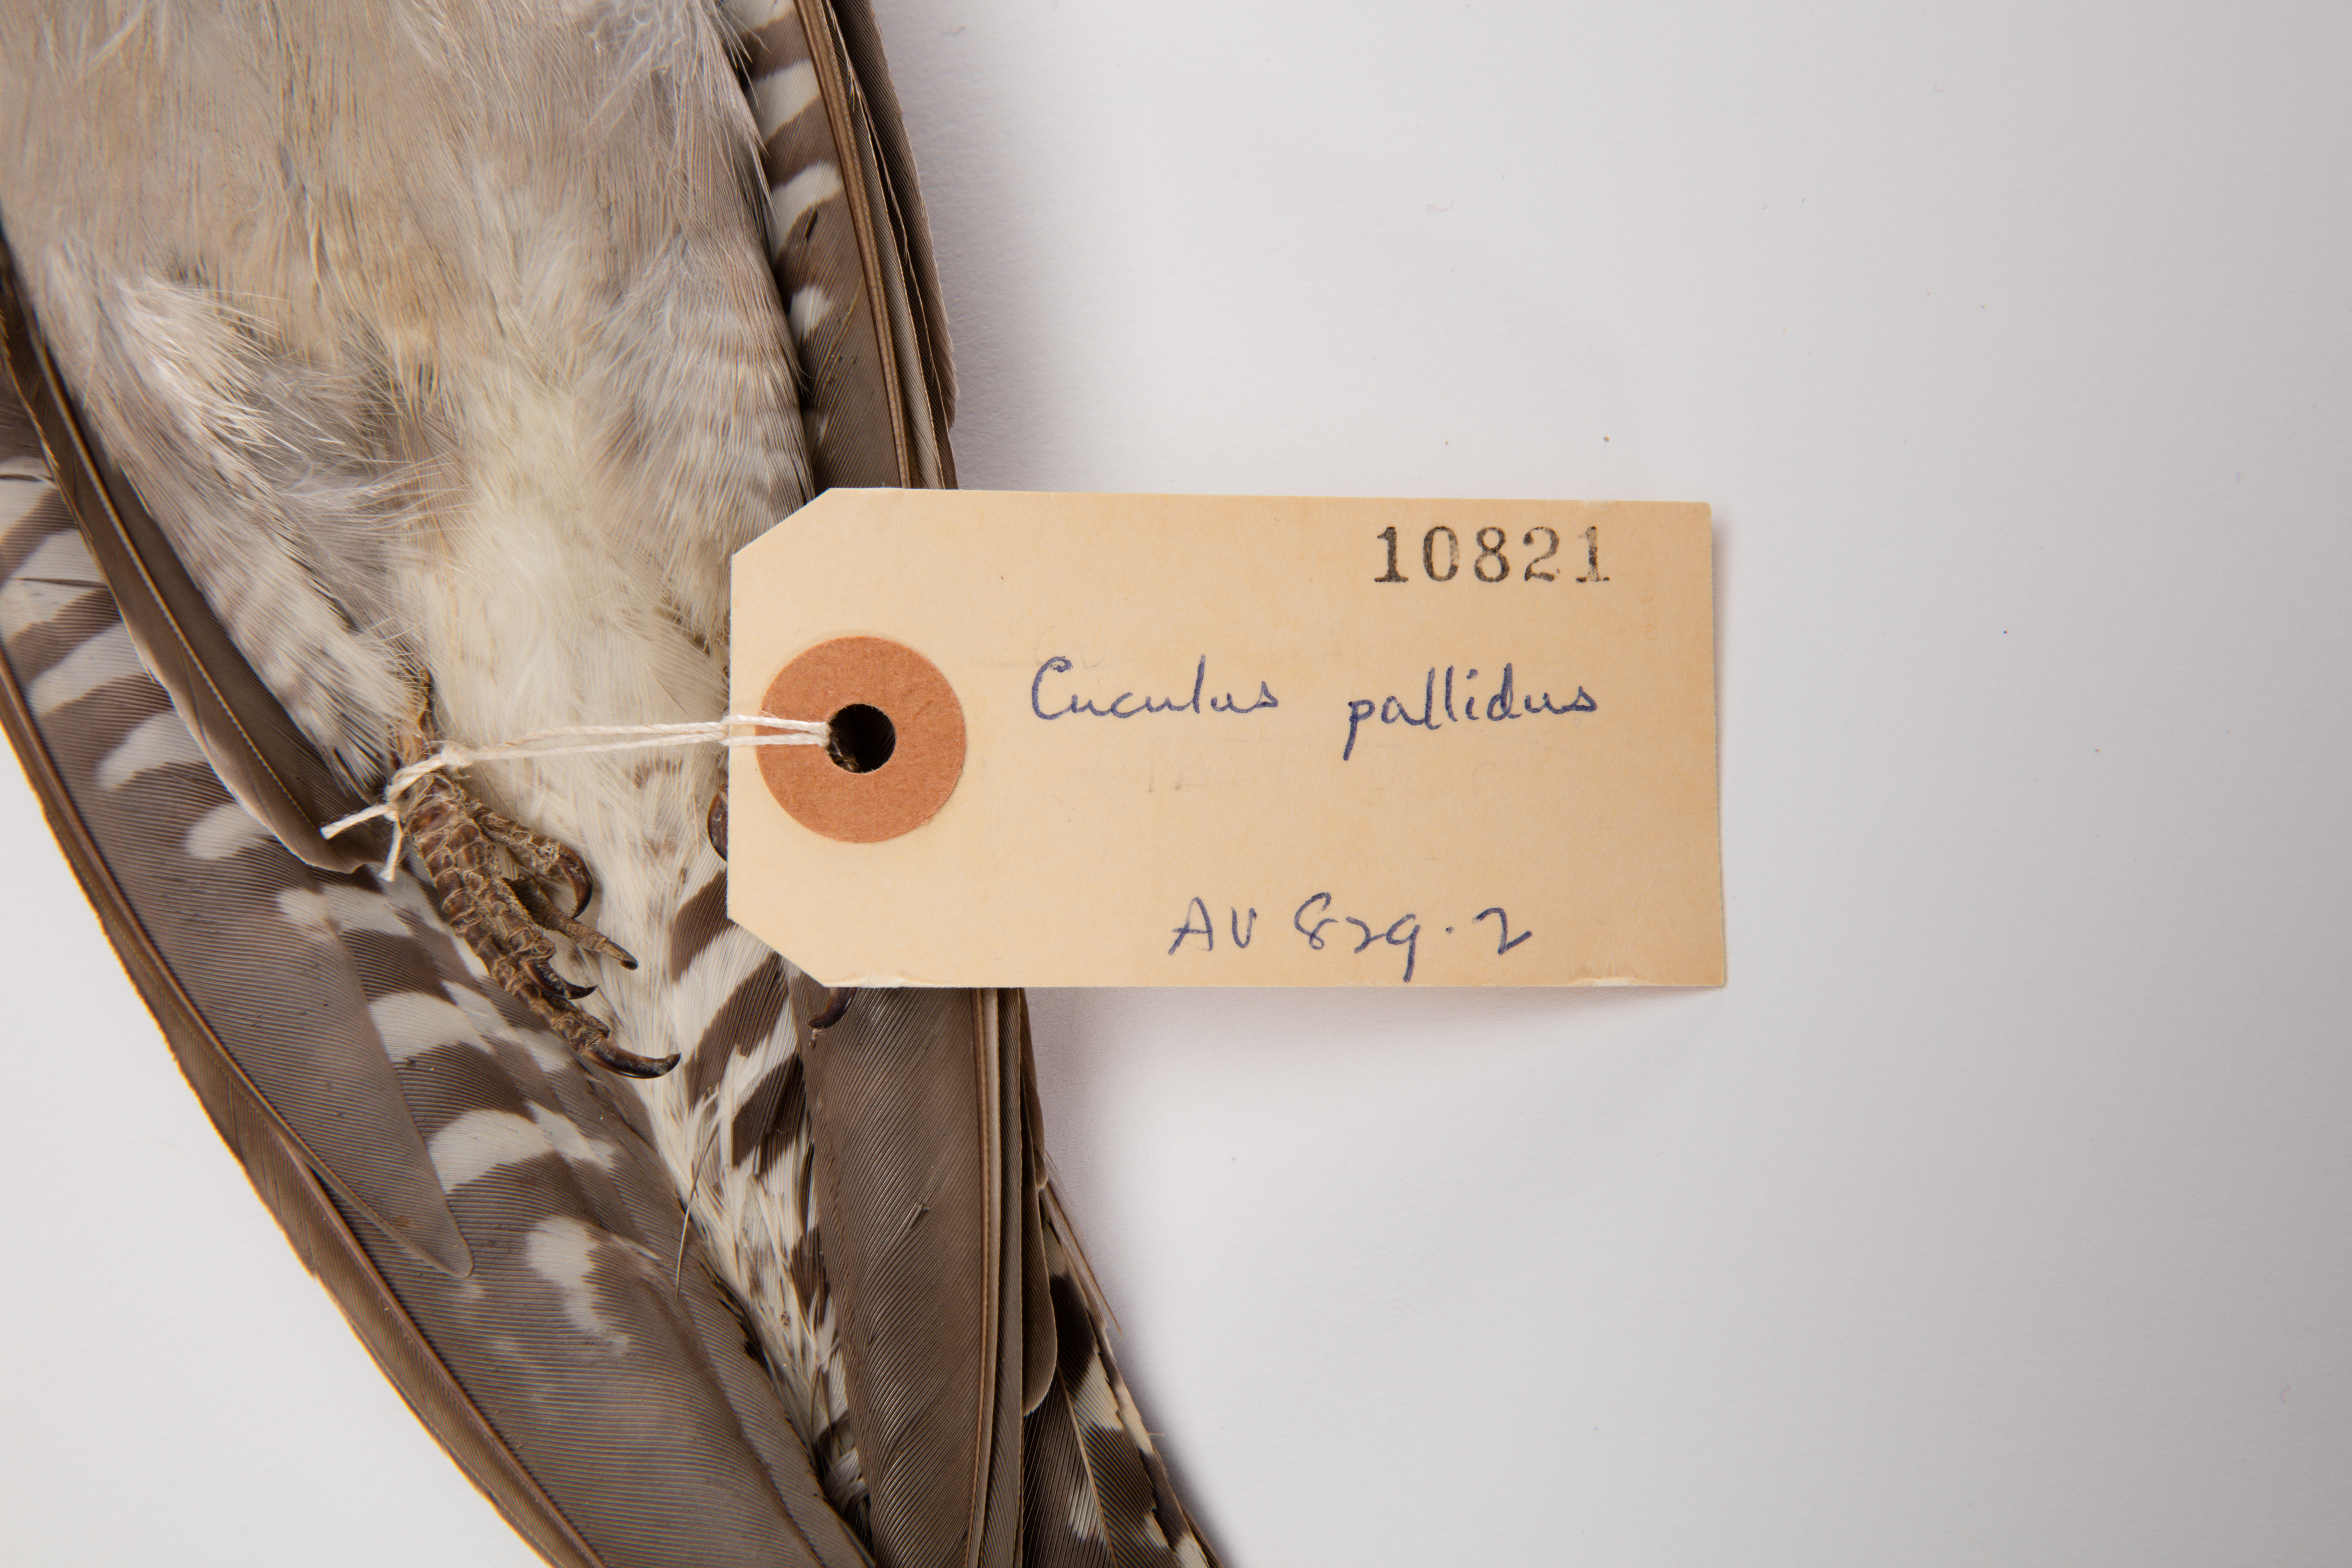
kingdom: Animalia
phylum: Chordata
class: Aves
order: Cuculiformes
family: Cuculidae
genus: Cuculus
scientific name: Cuculus pallidus
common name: Pallid cuckoo
